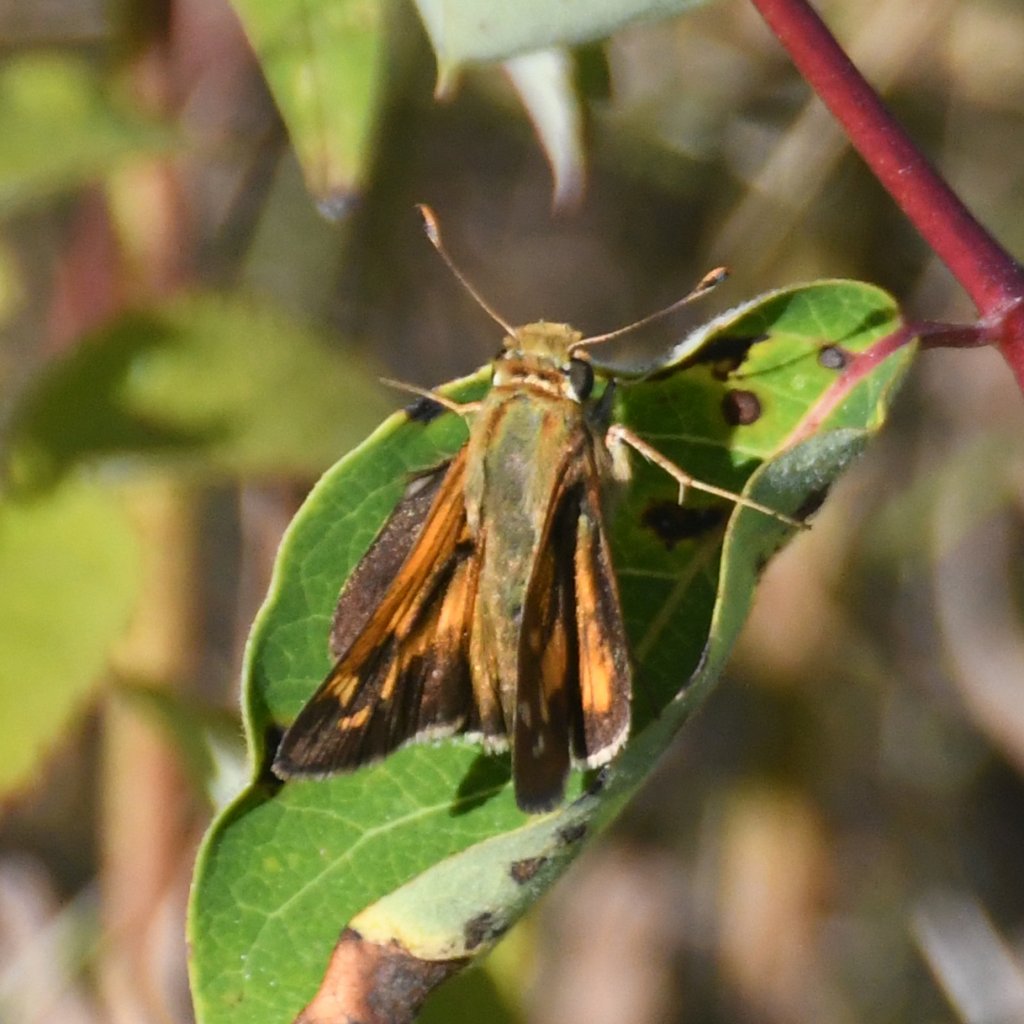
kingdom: Animalia
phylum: Arthropoda
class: Insecta
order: Lepidoptera
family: Hesperiidae
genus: Hesperia
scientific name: Hesperia leonardus
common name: Leonard's Skipper
